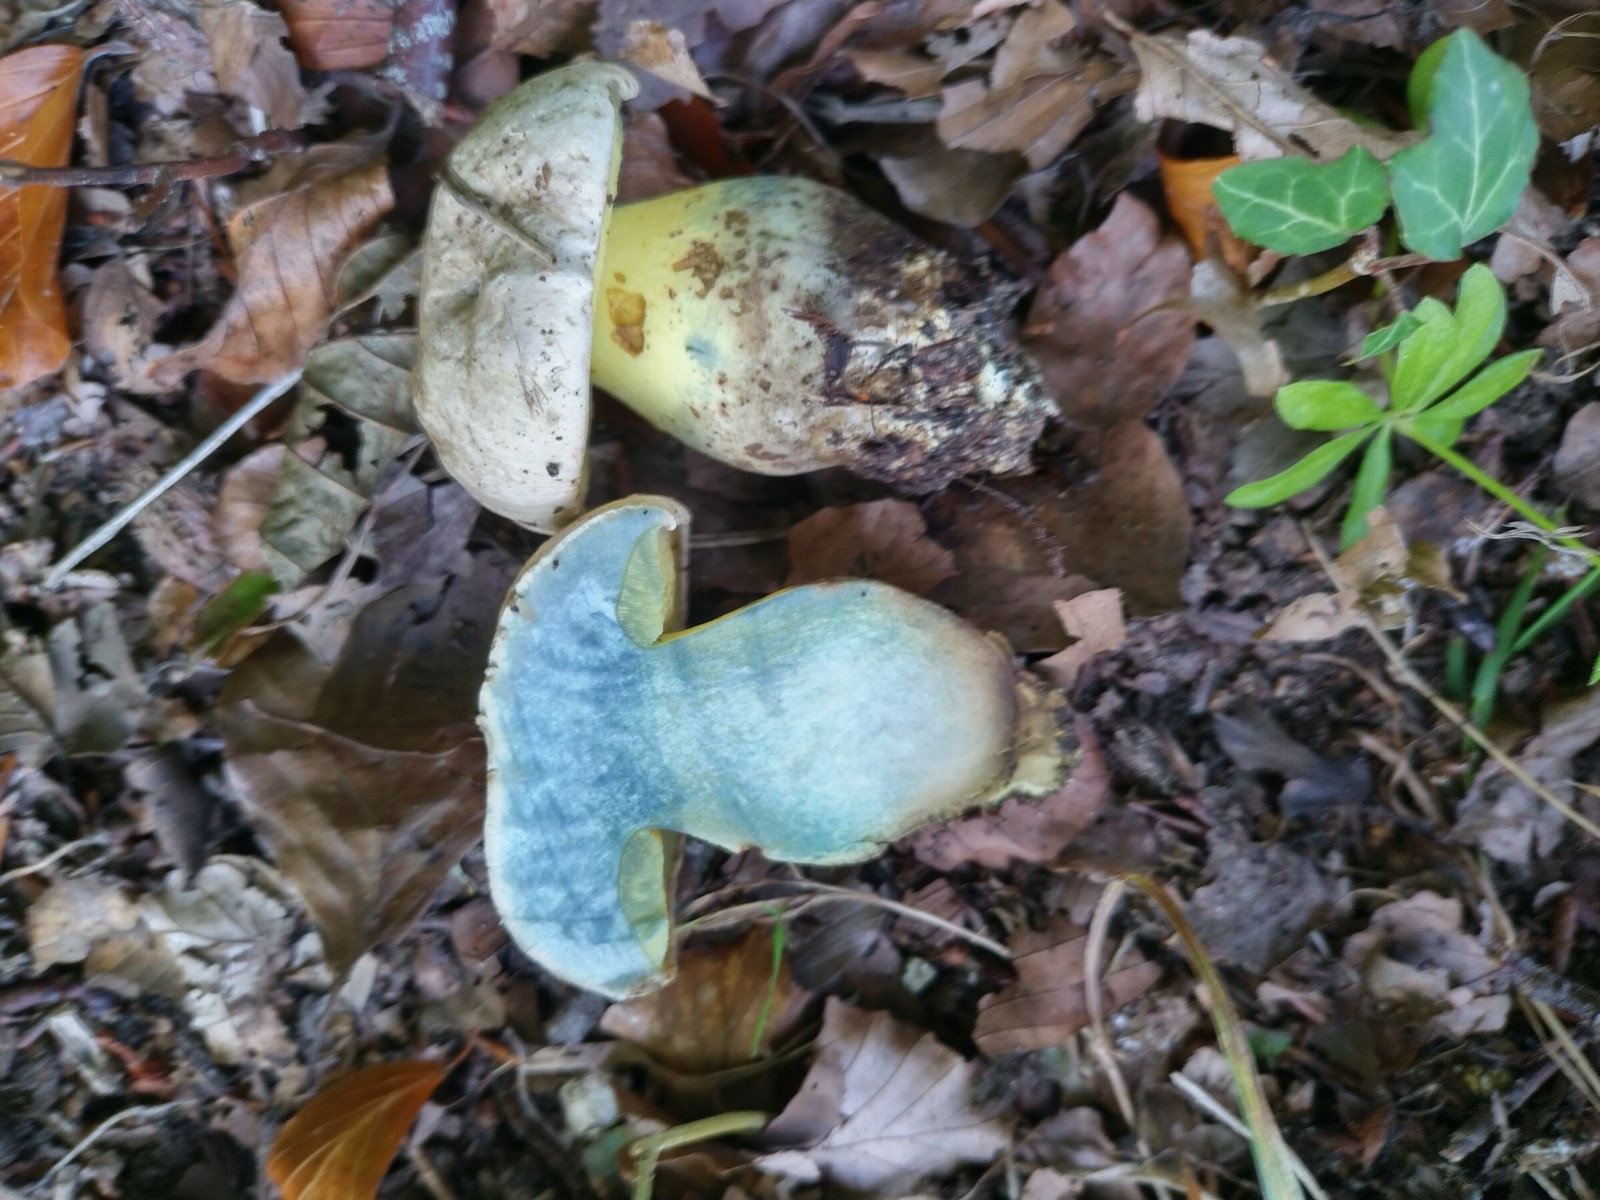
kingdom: Fungi
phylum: Basidiomycota
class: Agaricomycetes
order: Boletales
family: Boletaceae
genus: Caloboletus
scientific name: Caloboletus radicans
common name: rod-rørhat
